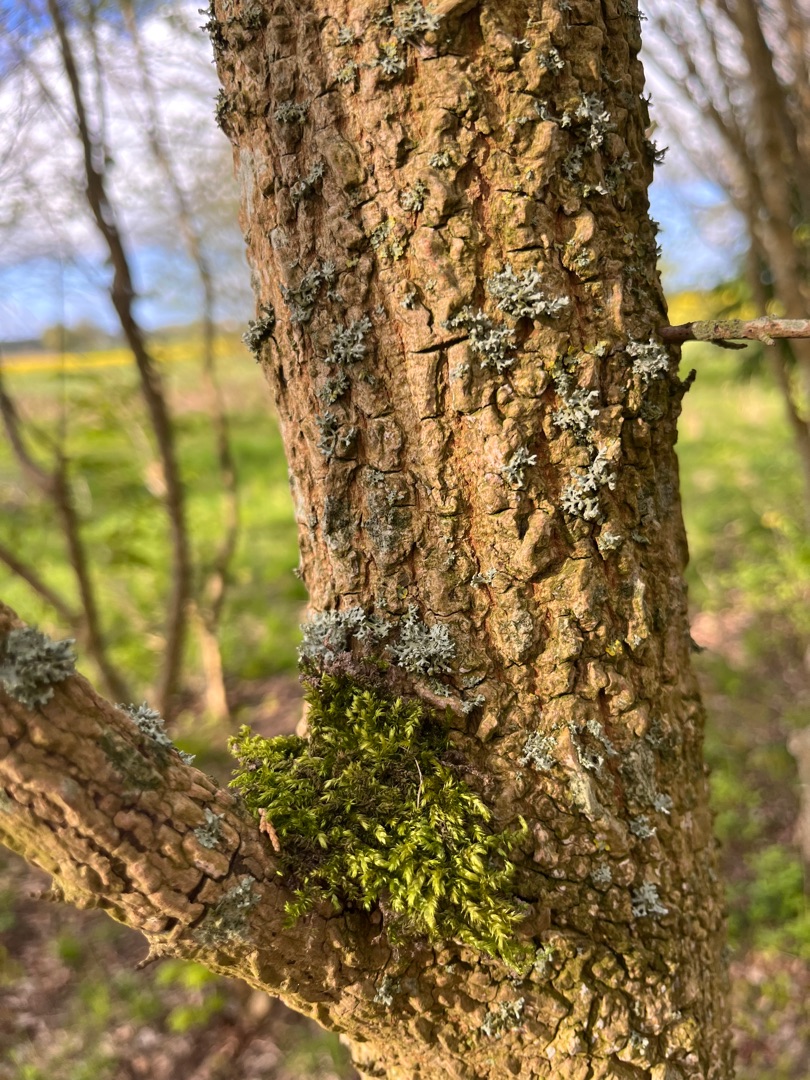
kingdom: Plantae
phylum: Bryophyta
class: Bryopsida
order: Hypnales
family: Brachytheciaceae
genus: Brachythecium
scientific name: Brachythecium rutabulum
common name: Almindelig kortkapsel
